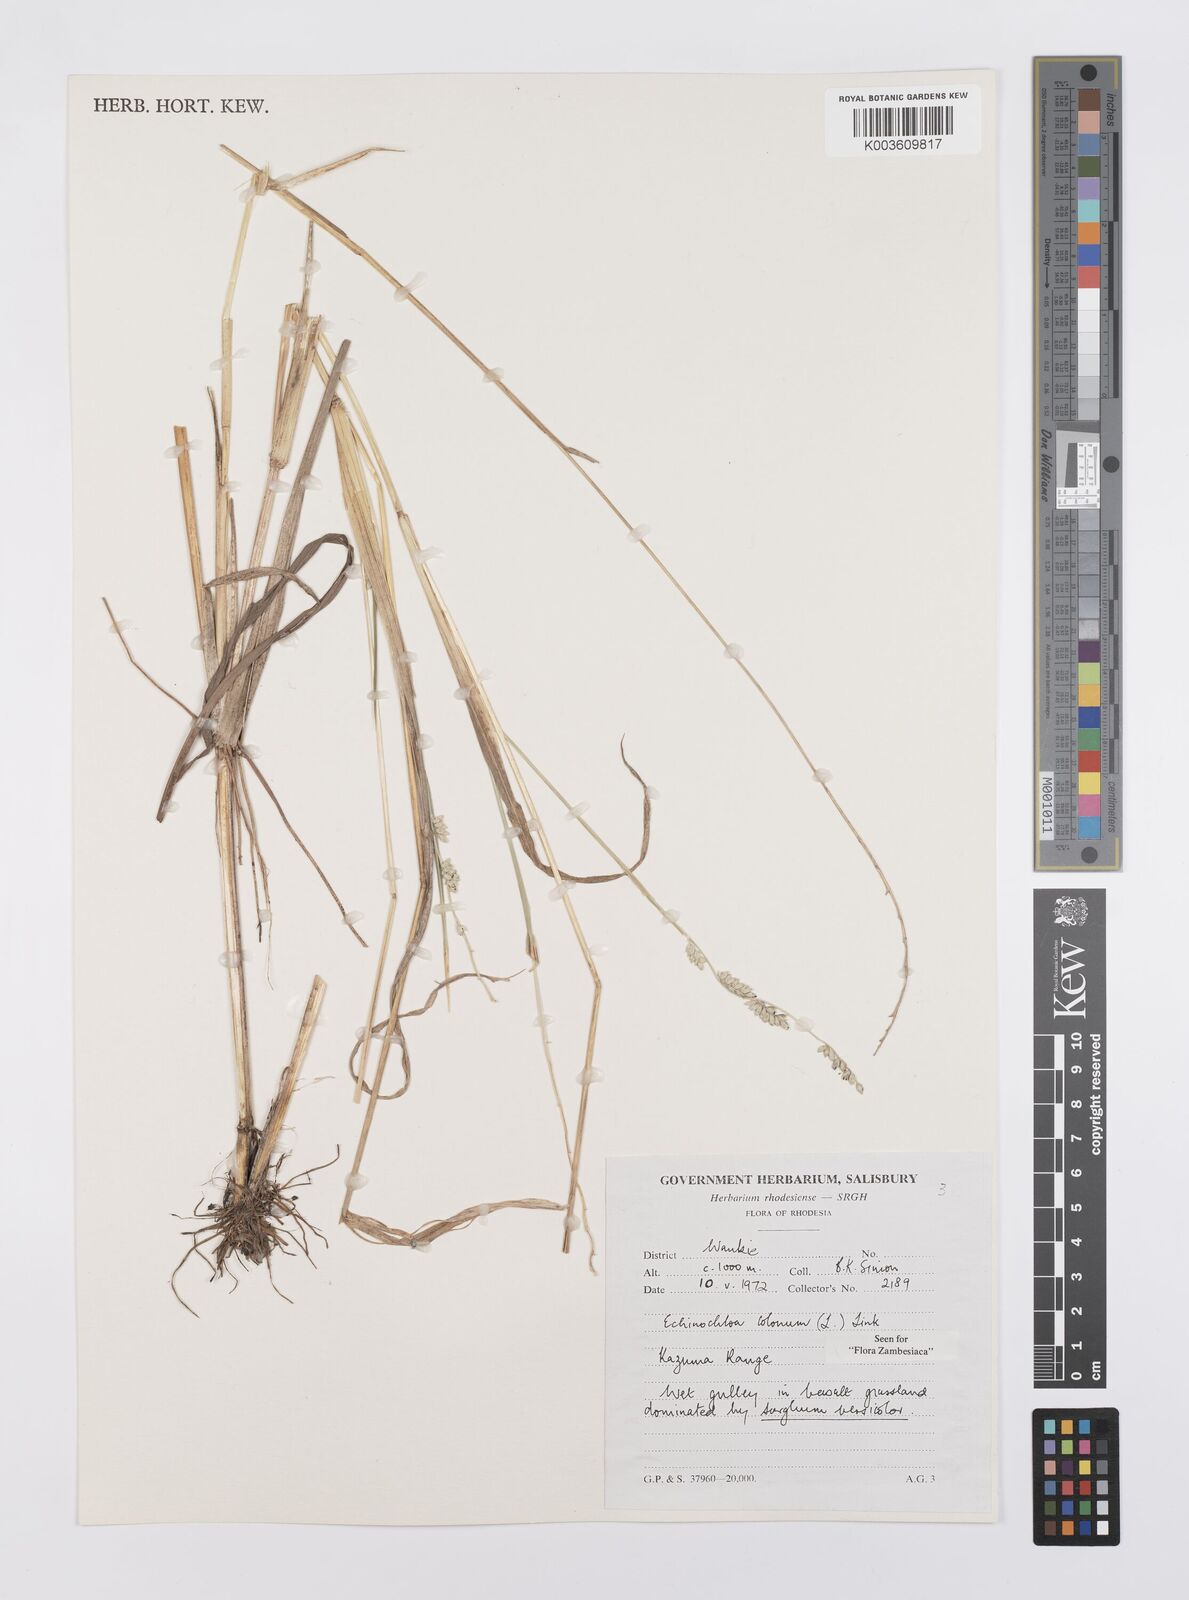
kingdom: Plantae
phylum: Tracheophyta
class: Liliopsida
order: Poales
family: Poaceae
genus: Echinochloa
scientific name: Echinochloa colonum
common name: Jungle rice
